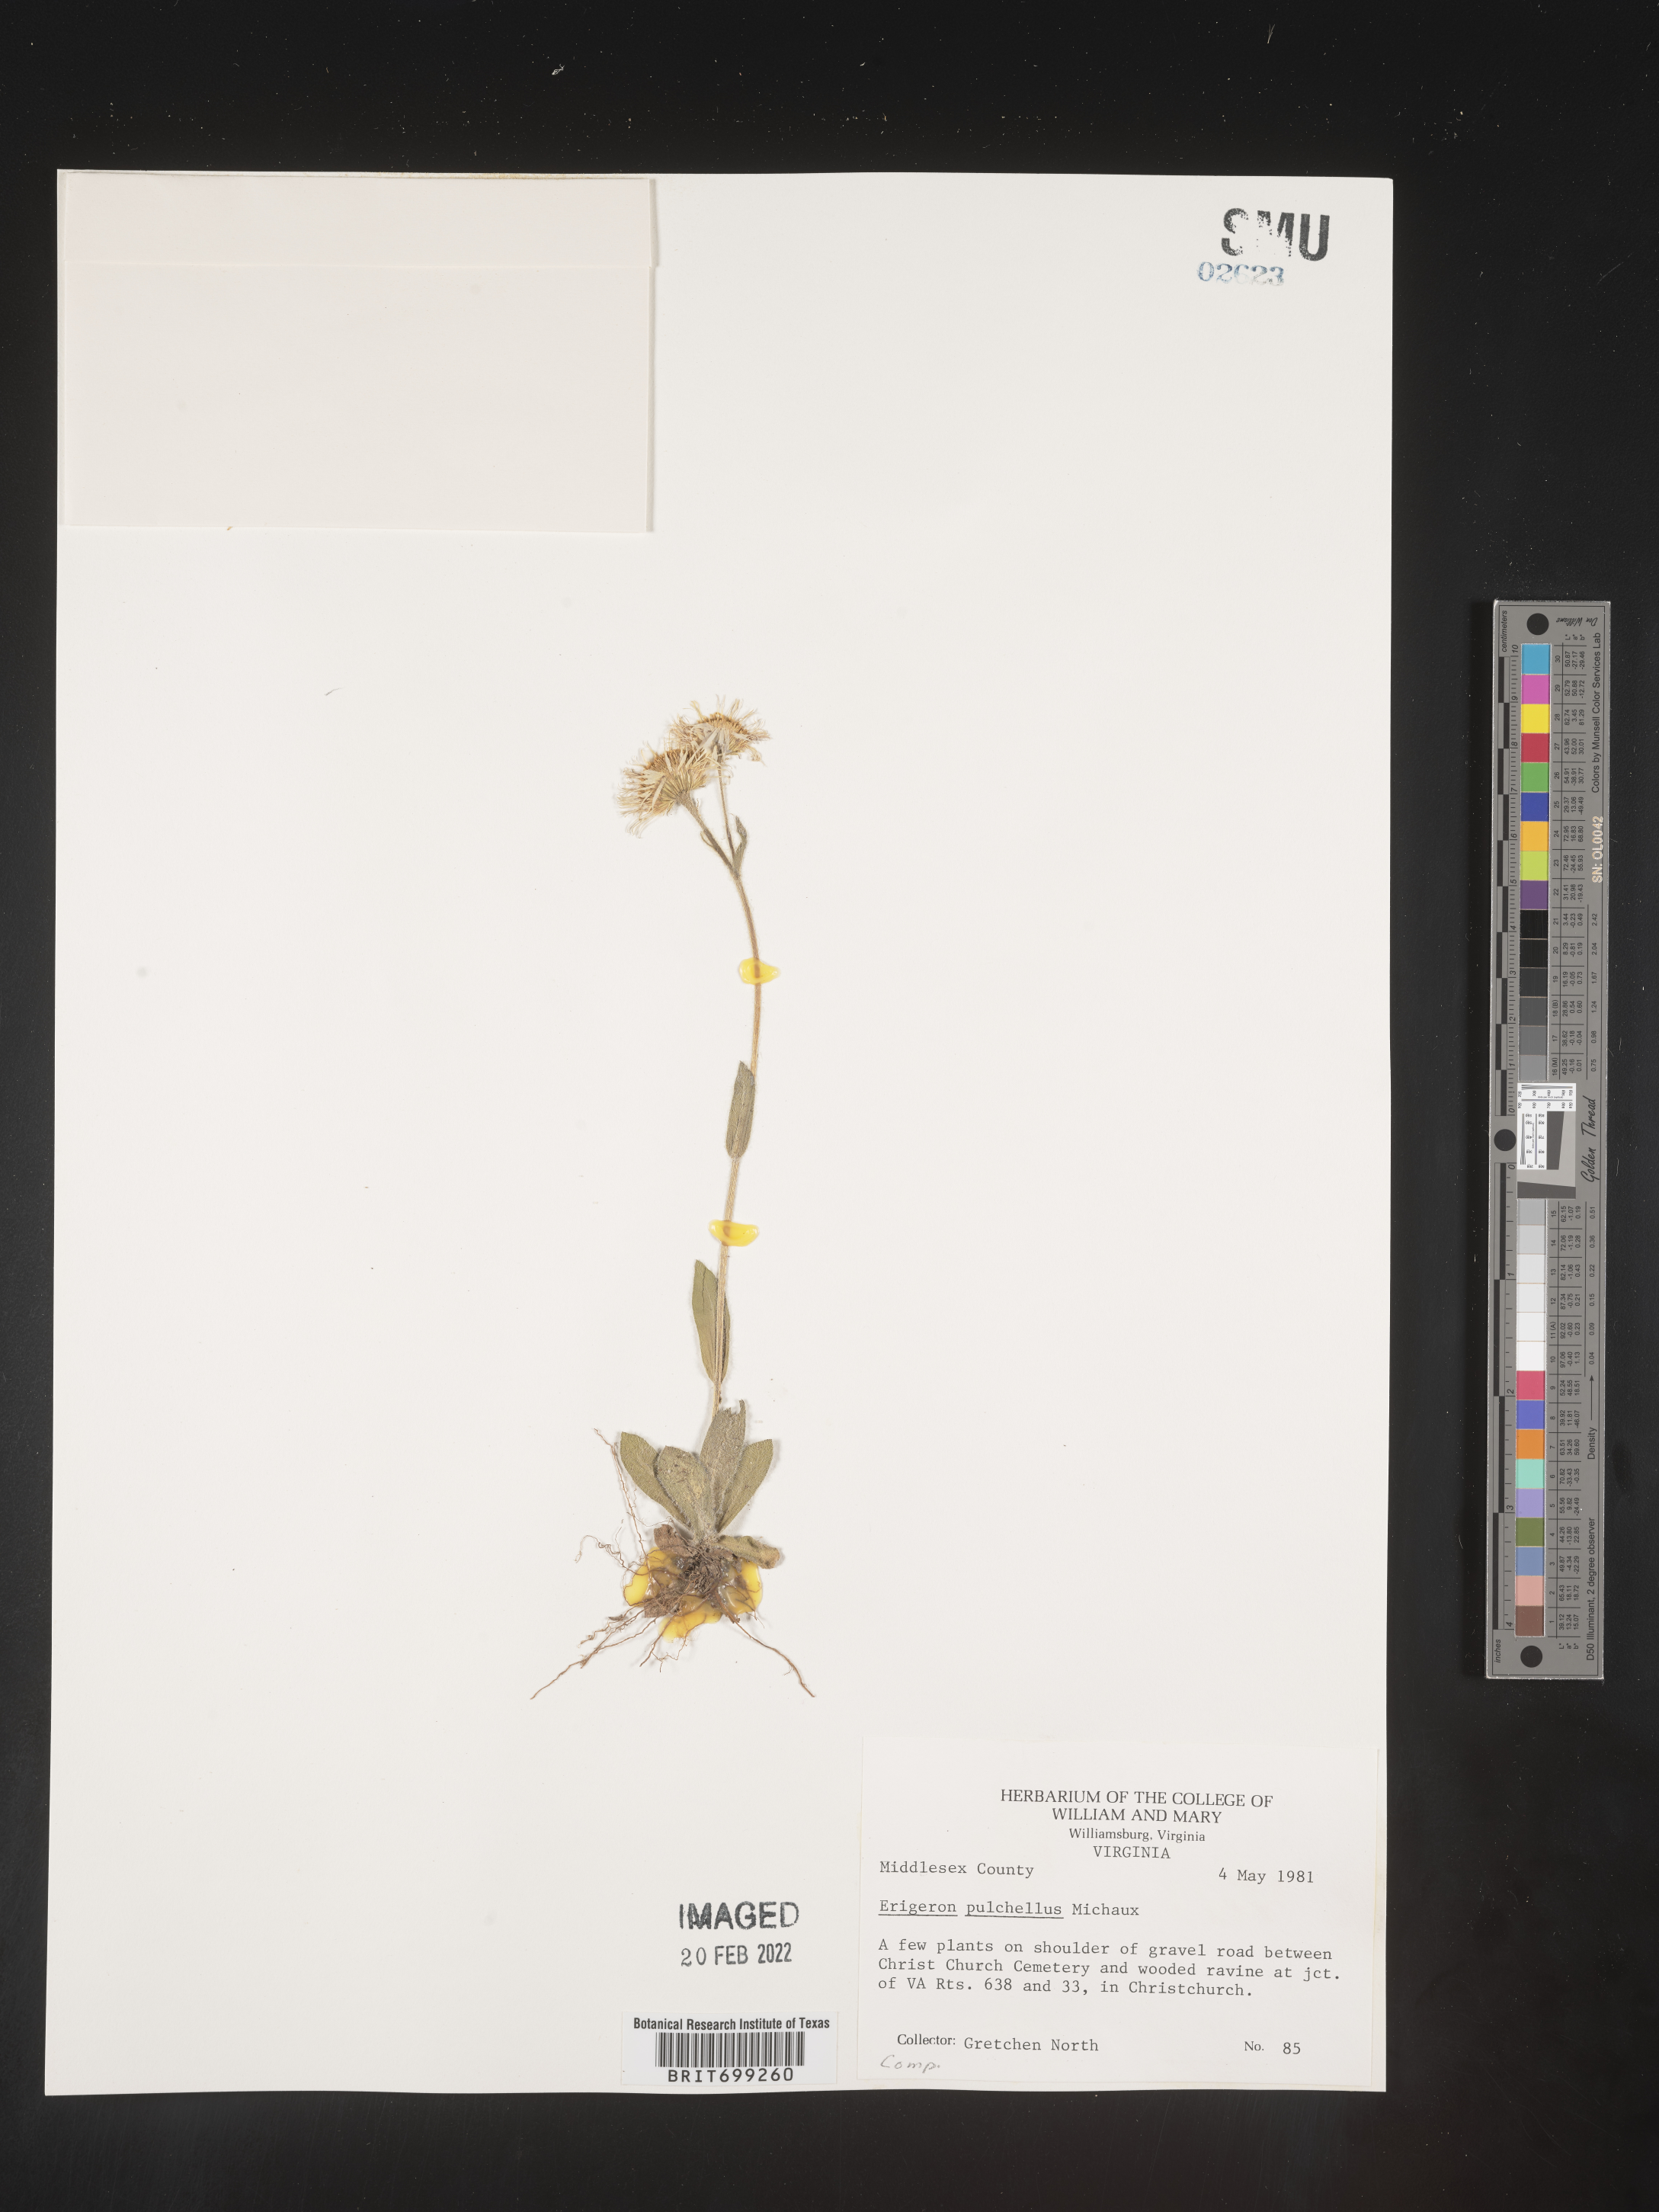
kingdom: Plantae
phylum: Tracheophyta
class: Magnoliopsida
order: Asterales
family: Asteraceae
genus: Erigeron
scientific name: Erigeron pulchellus
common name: Hairy fleabane
